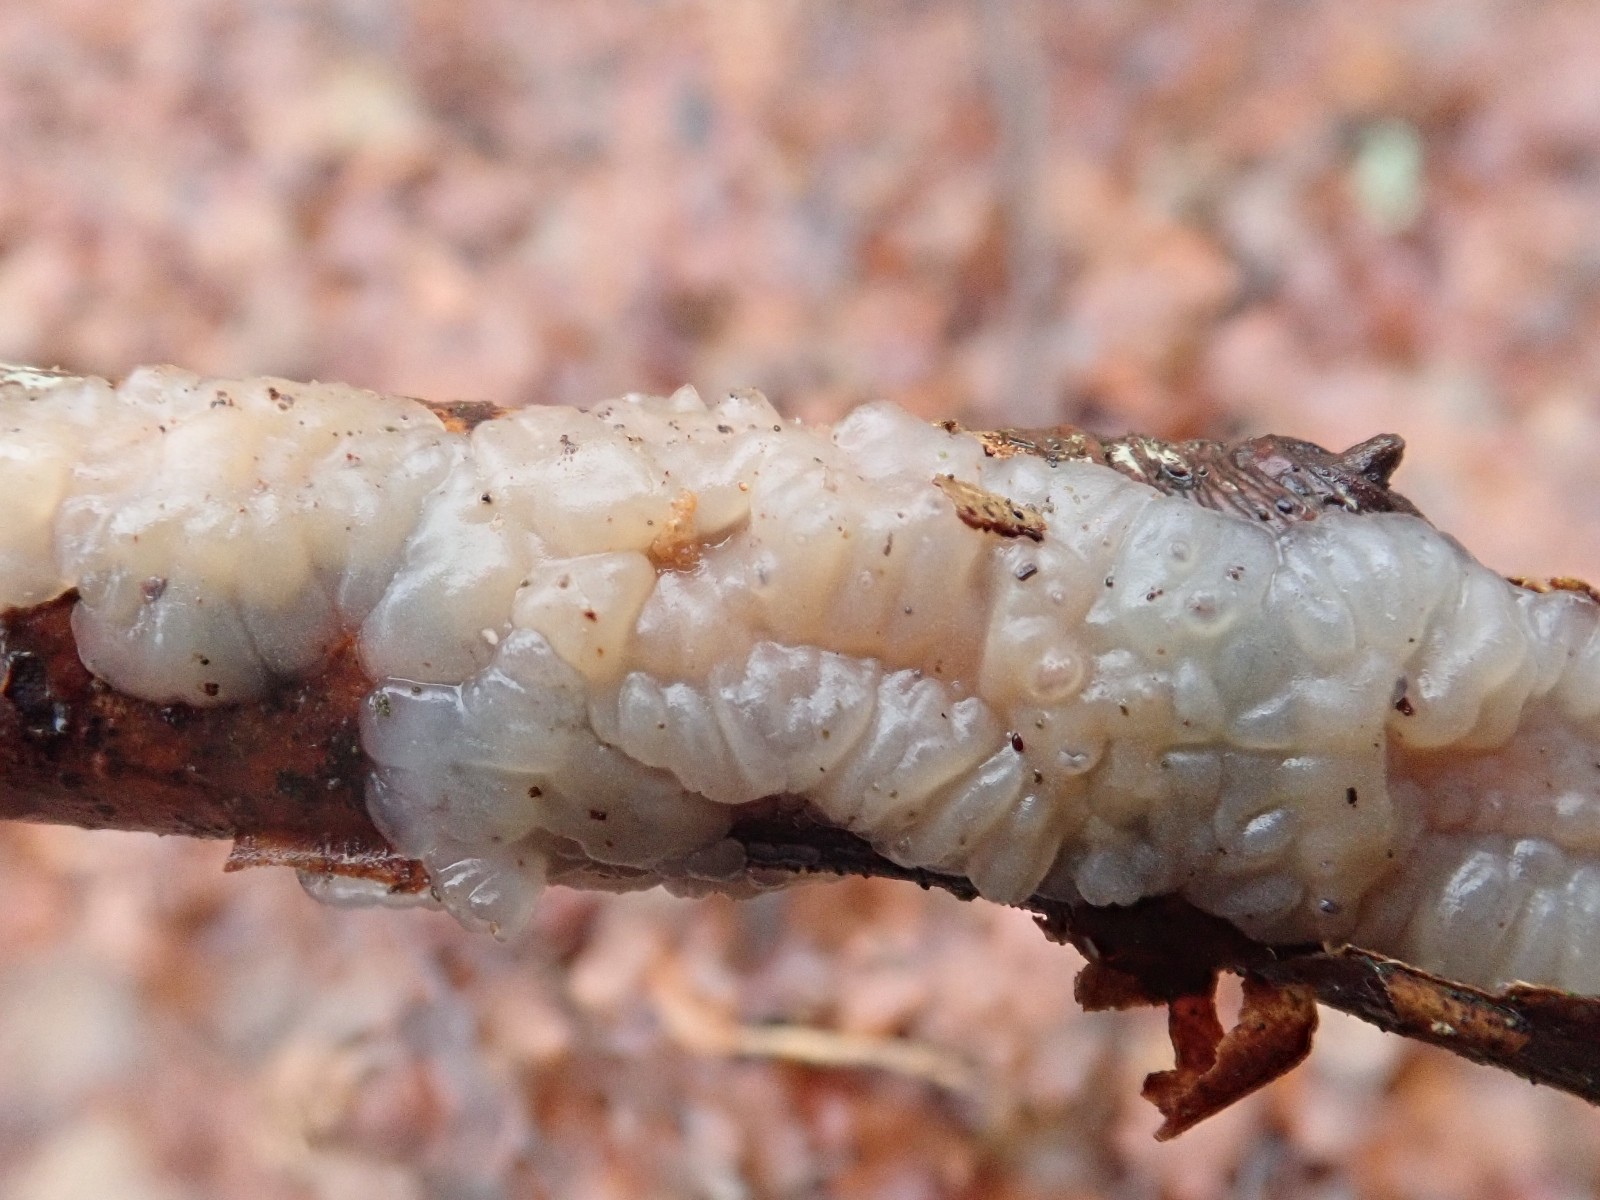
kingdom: Fungi
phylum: Basidiomycota
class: Agaricomycetes
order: Auriculariales
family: Auriculariaceae
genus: Exidia
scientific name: Exidia thuretiana
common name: hvidlig bævretop
